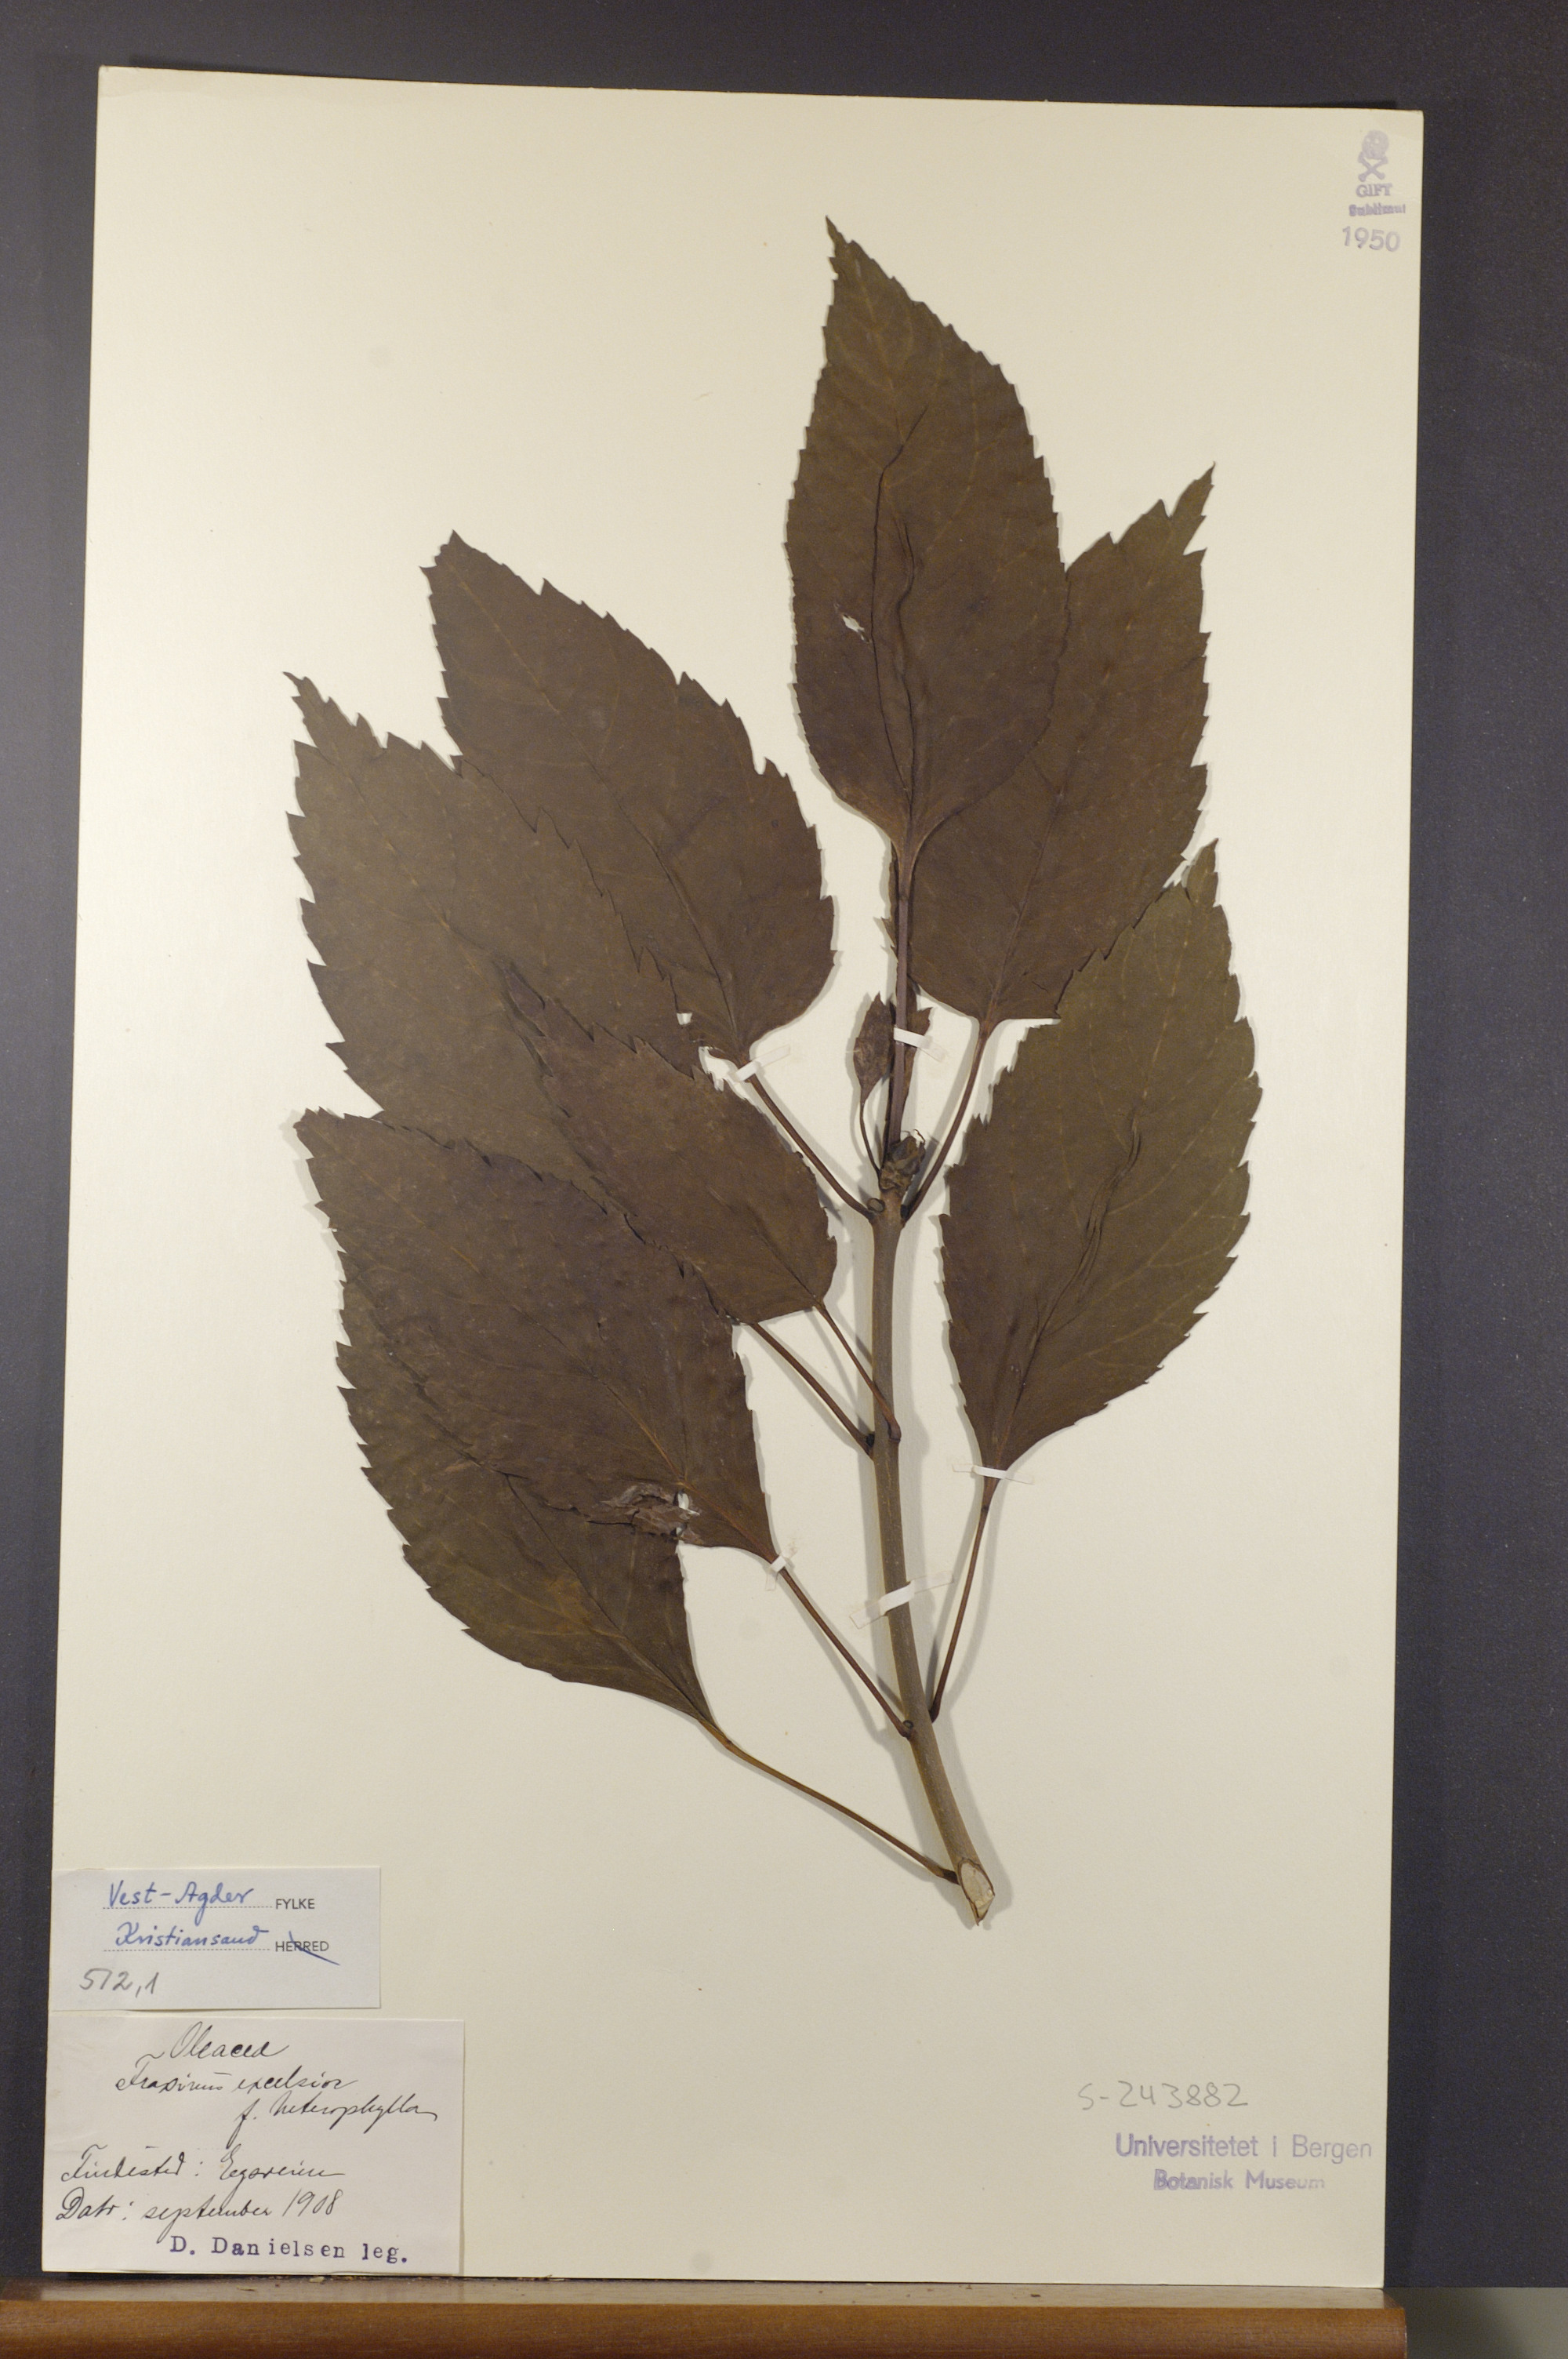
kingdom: Plantae
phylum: Tracheophyta
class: Magnoliopsida
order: Lamiales
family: Oleaceae
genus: Fraxinus
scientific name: Fraxinus excelsior
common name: European ash
